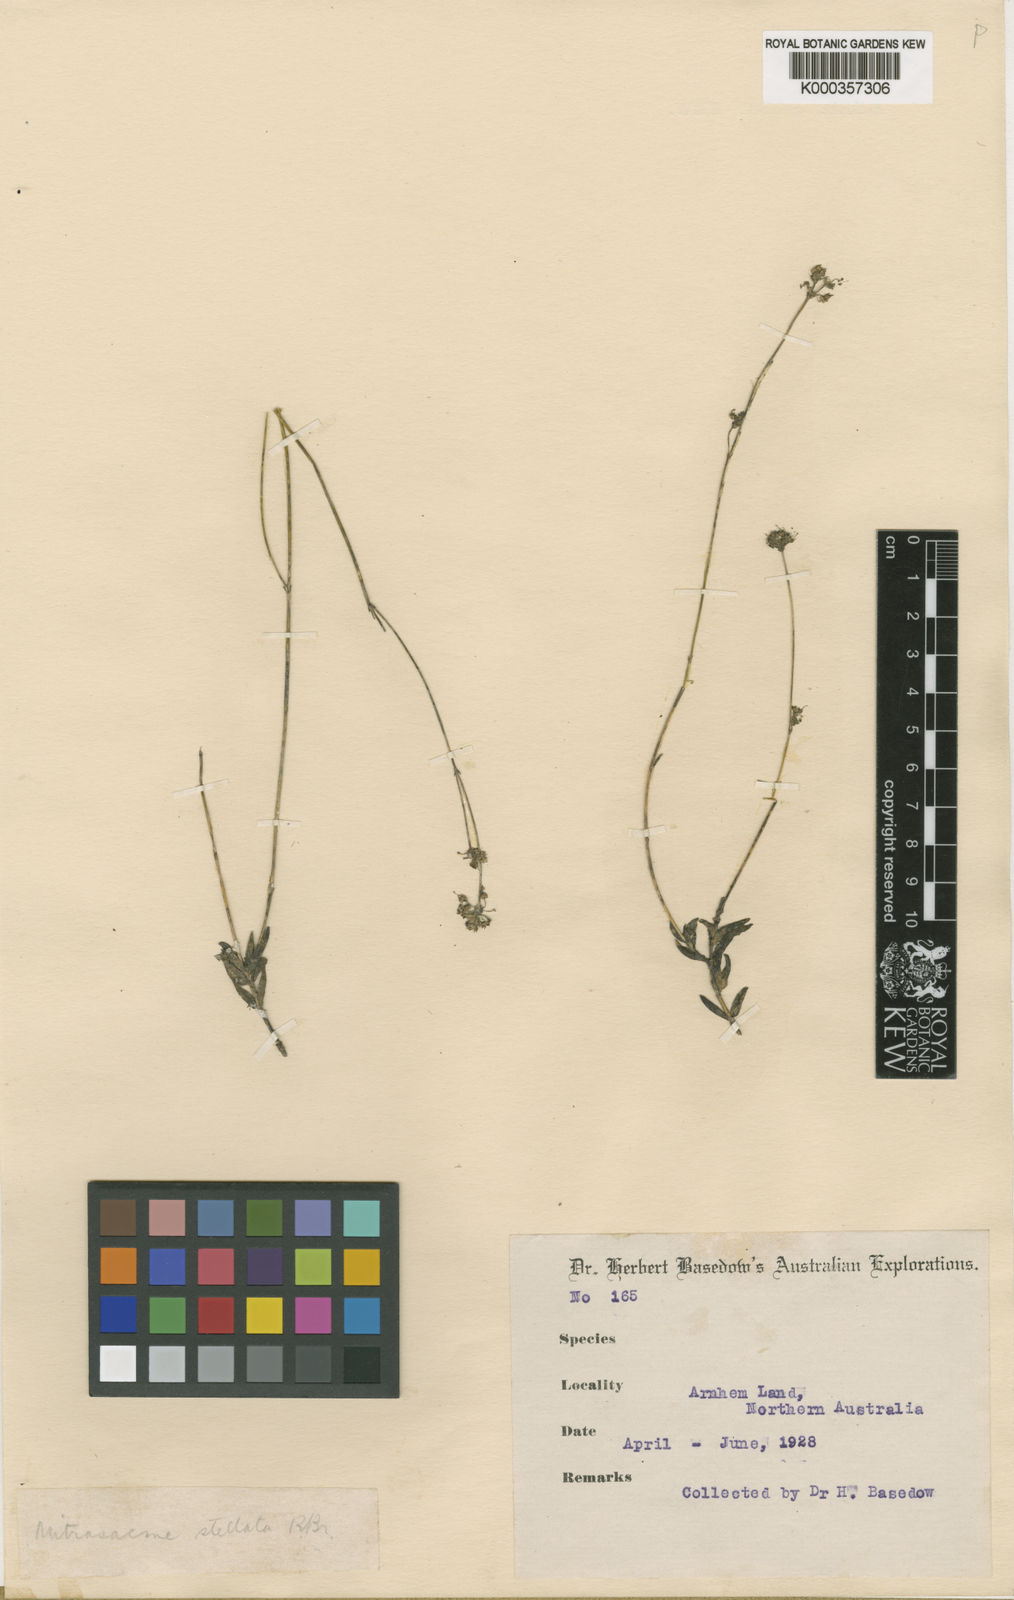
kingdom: Plantae
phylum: Tracheophyta
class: Magnoliopsida
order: Gentianales
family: Loganiaceae
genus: Mitrasacme
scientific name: Mitrasacme stellata
